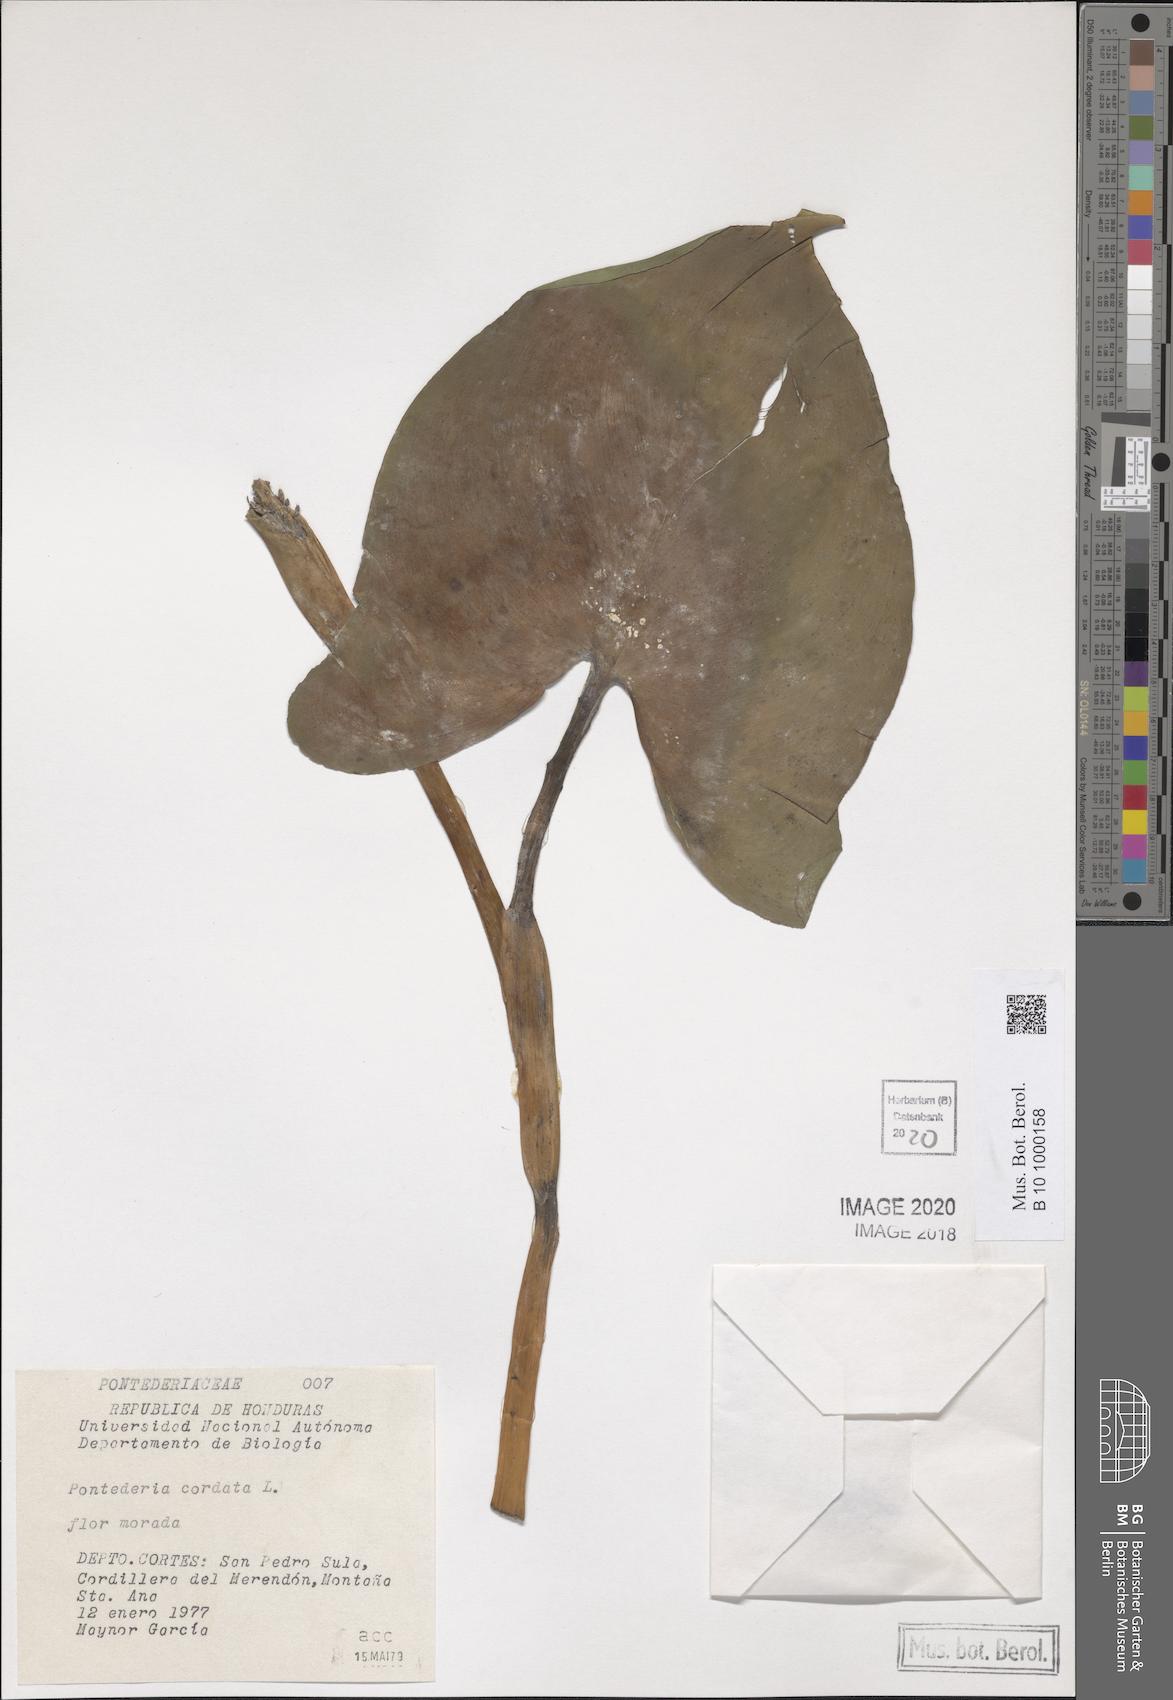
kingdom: Plantae
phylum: Tracheophyta
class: Liliopsida
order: Commelinales
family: Pontederiaceae
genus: Pontederia
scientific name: Pontederia cordata
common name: Pickerelweed
